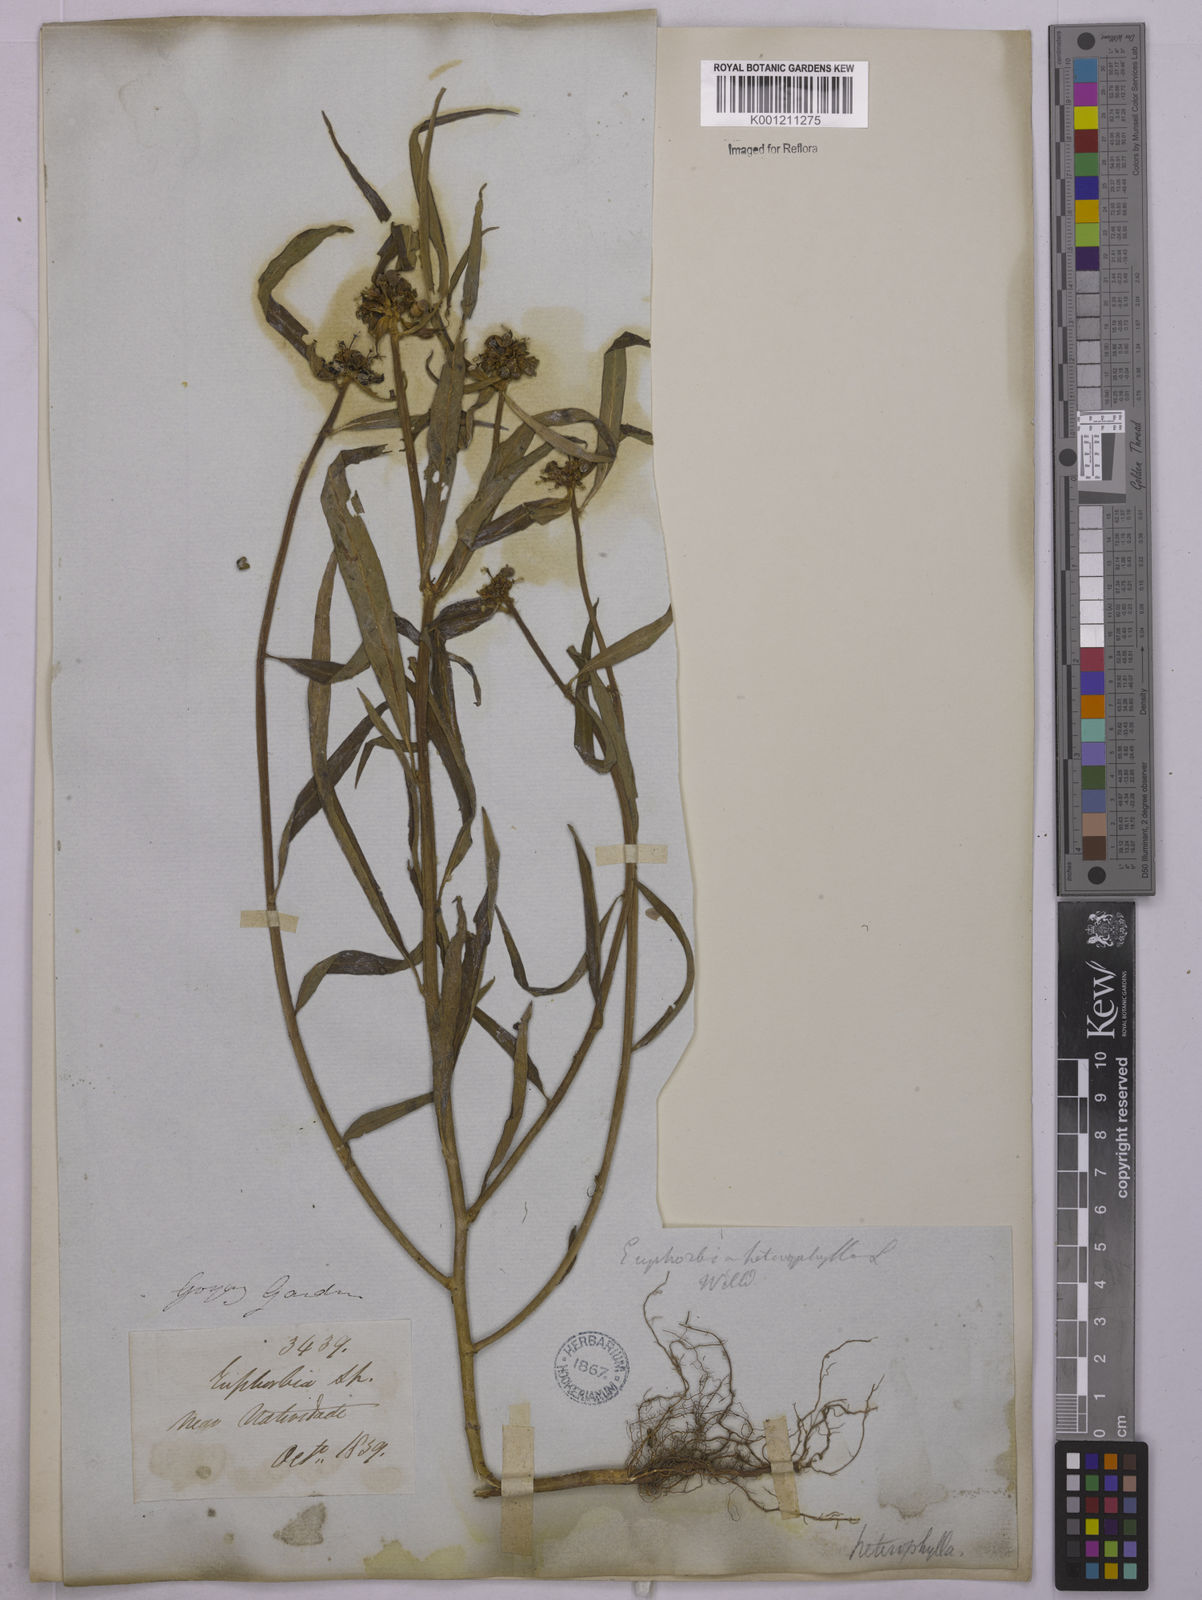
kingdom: Plantae
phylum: Tracheophyta
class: Magnoliopsida
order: Malpighiales
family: Euphorbiaceae
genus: Euphorbia
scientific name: Euphorbia heterophylla
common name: Mexican fireplant
